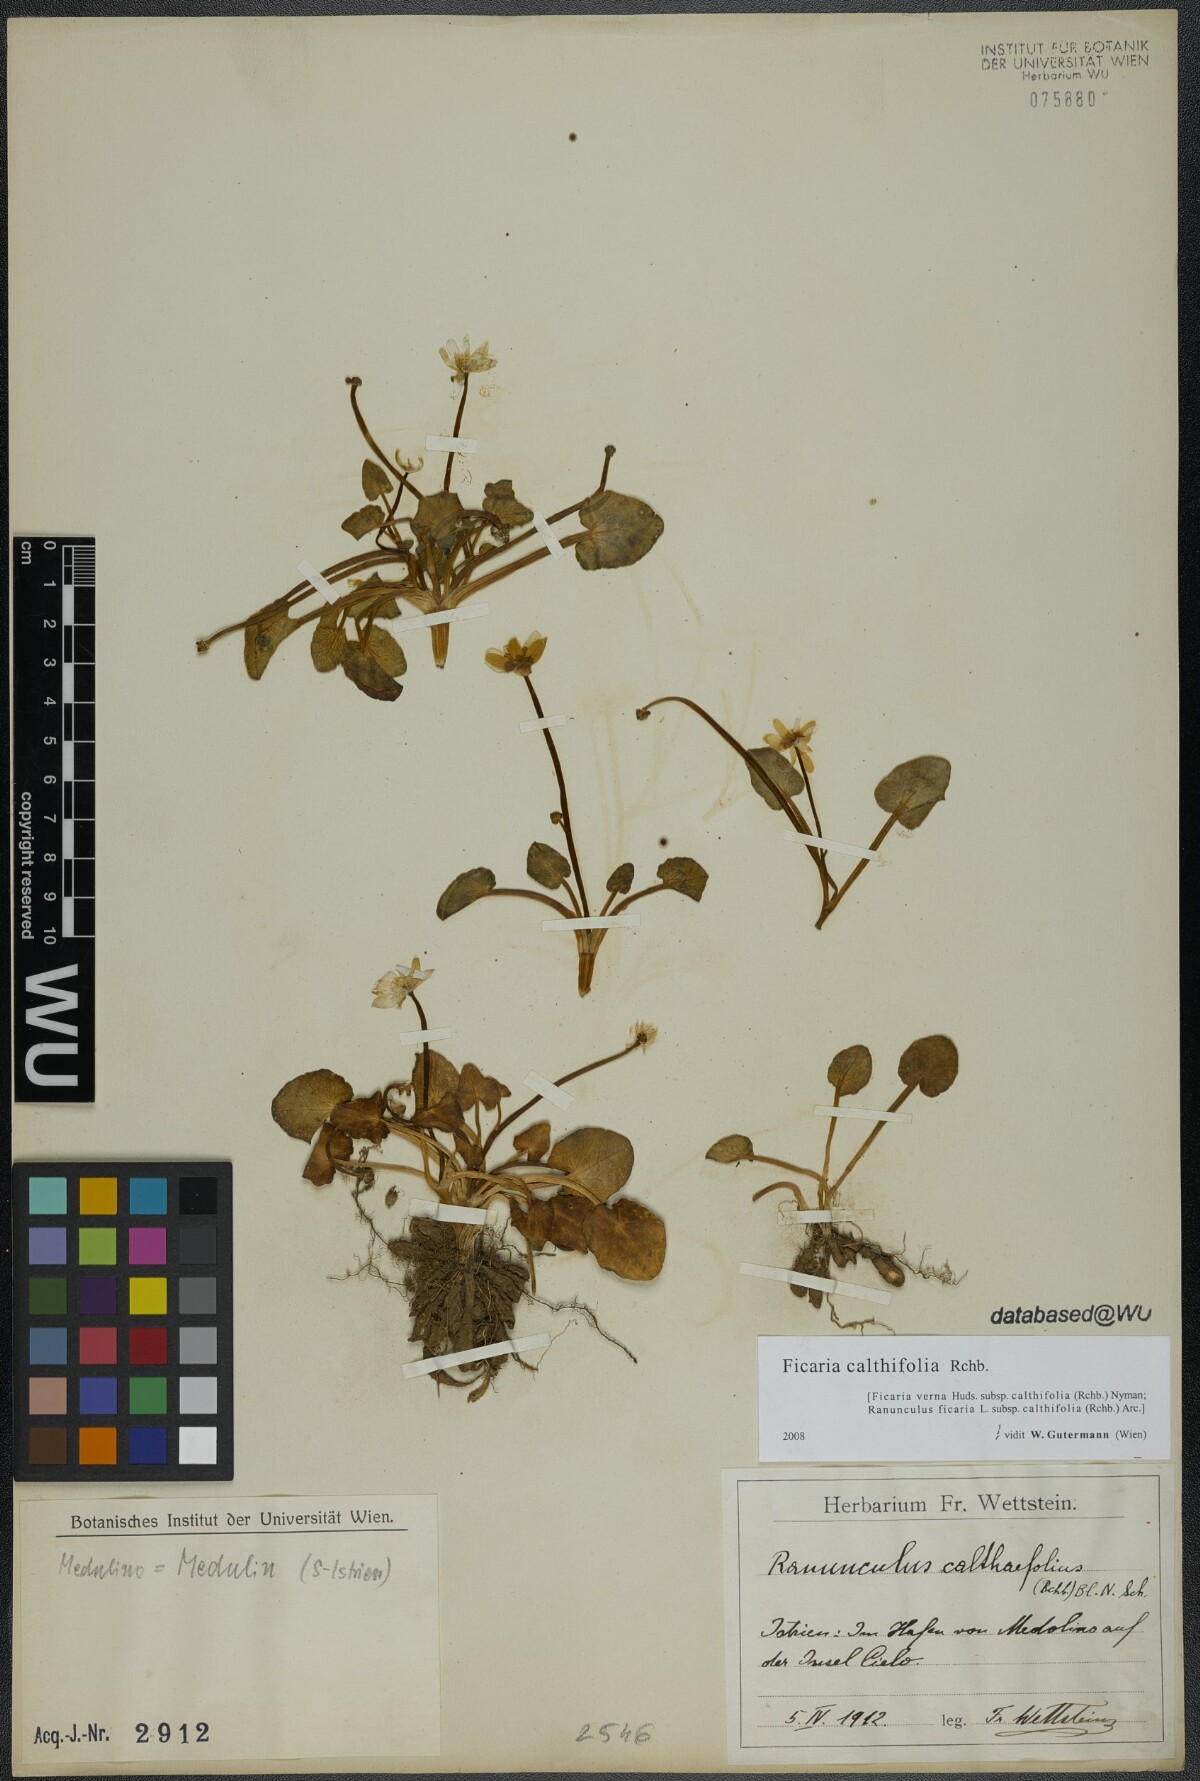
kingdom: Plantae
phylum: Tracheophyta
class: Magnoliopsida
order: Ranunculales
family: Ranunculaceae
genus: Ficaria
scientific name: Ficaria calthifolia
